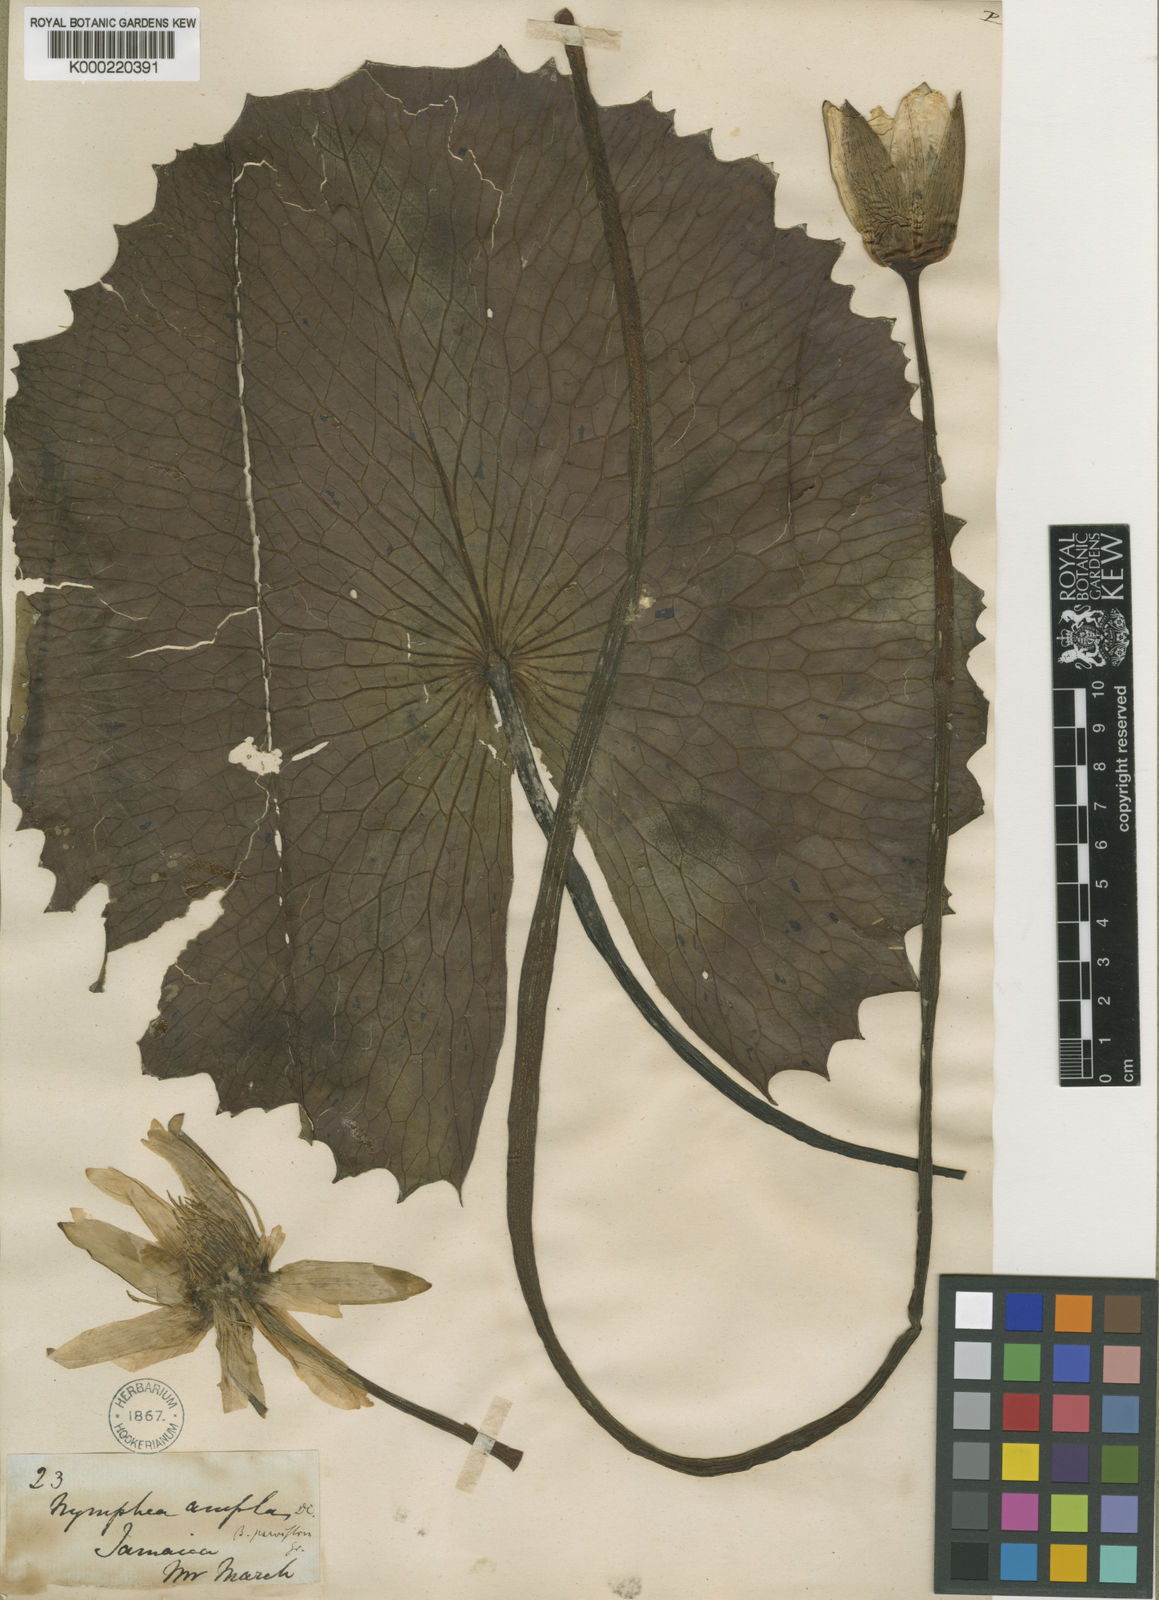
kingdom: Plantae
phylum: Tracheophyta
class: Magnoliopsida
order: Nymphaeales
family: Nymphaeaceae
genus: Nymphaea
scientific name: Nymphaea ampla
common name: Dotleaf waterlily
